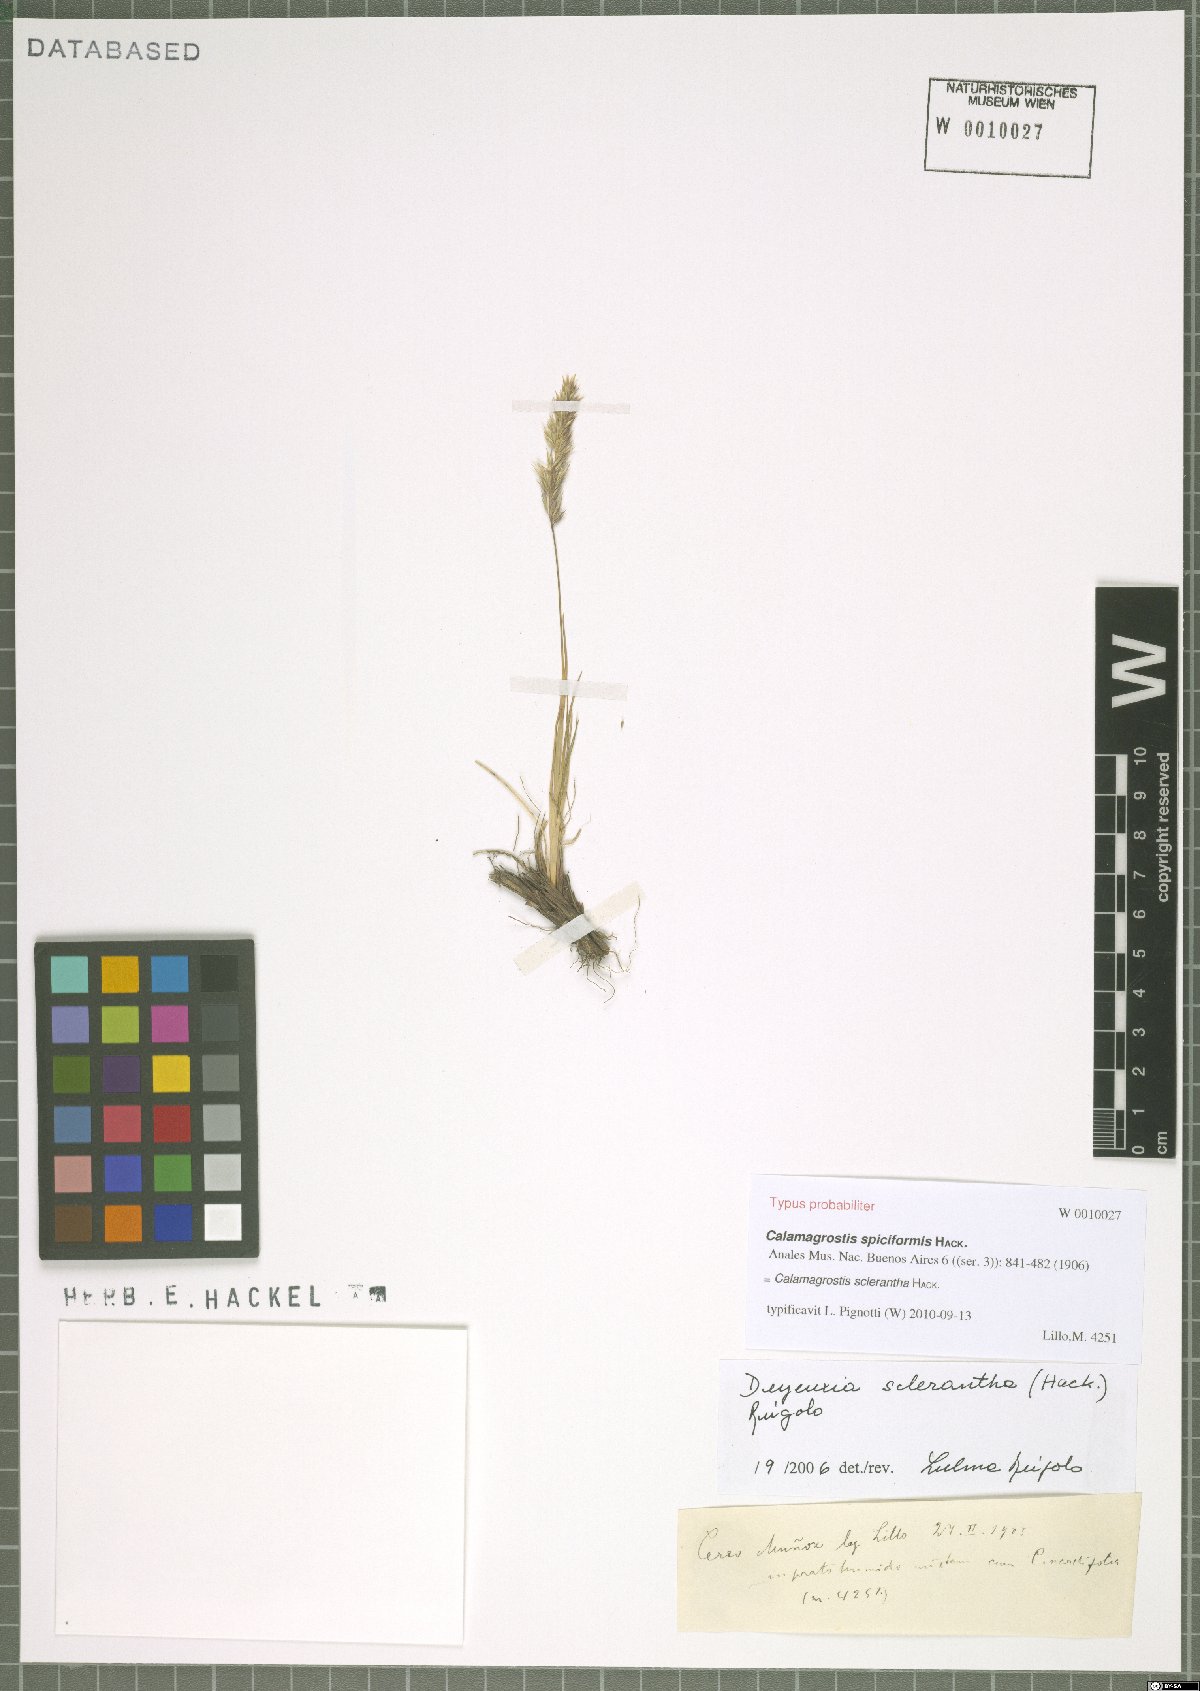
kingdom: Plantae
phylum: Tracheophyta
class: Liliopsida
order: Poales
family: Poaceae
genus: Cinnagrostis
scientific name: Cinnagrostis sclerantha
